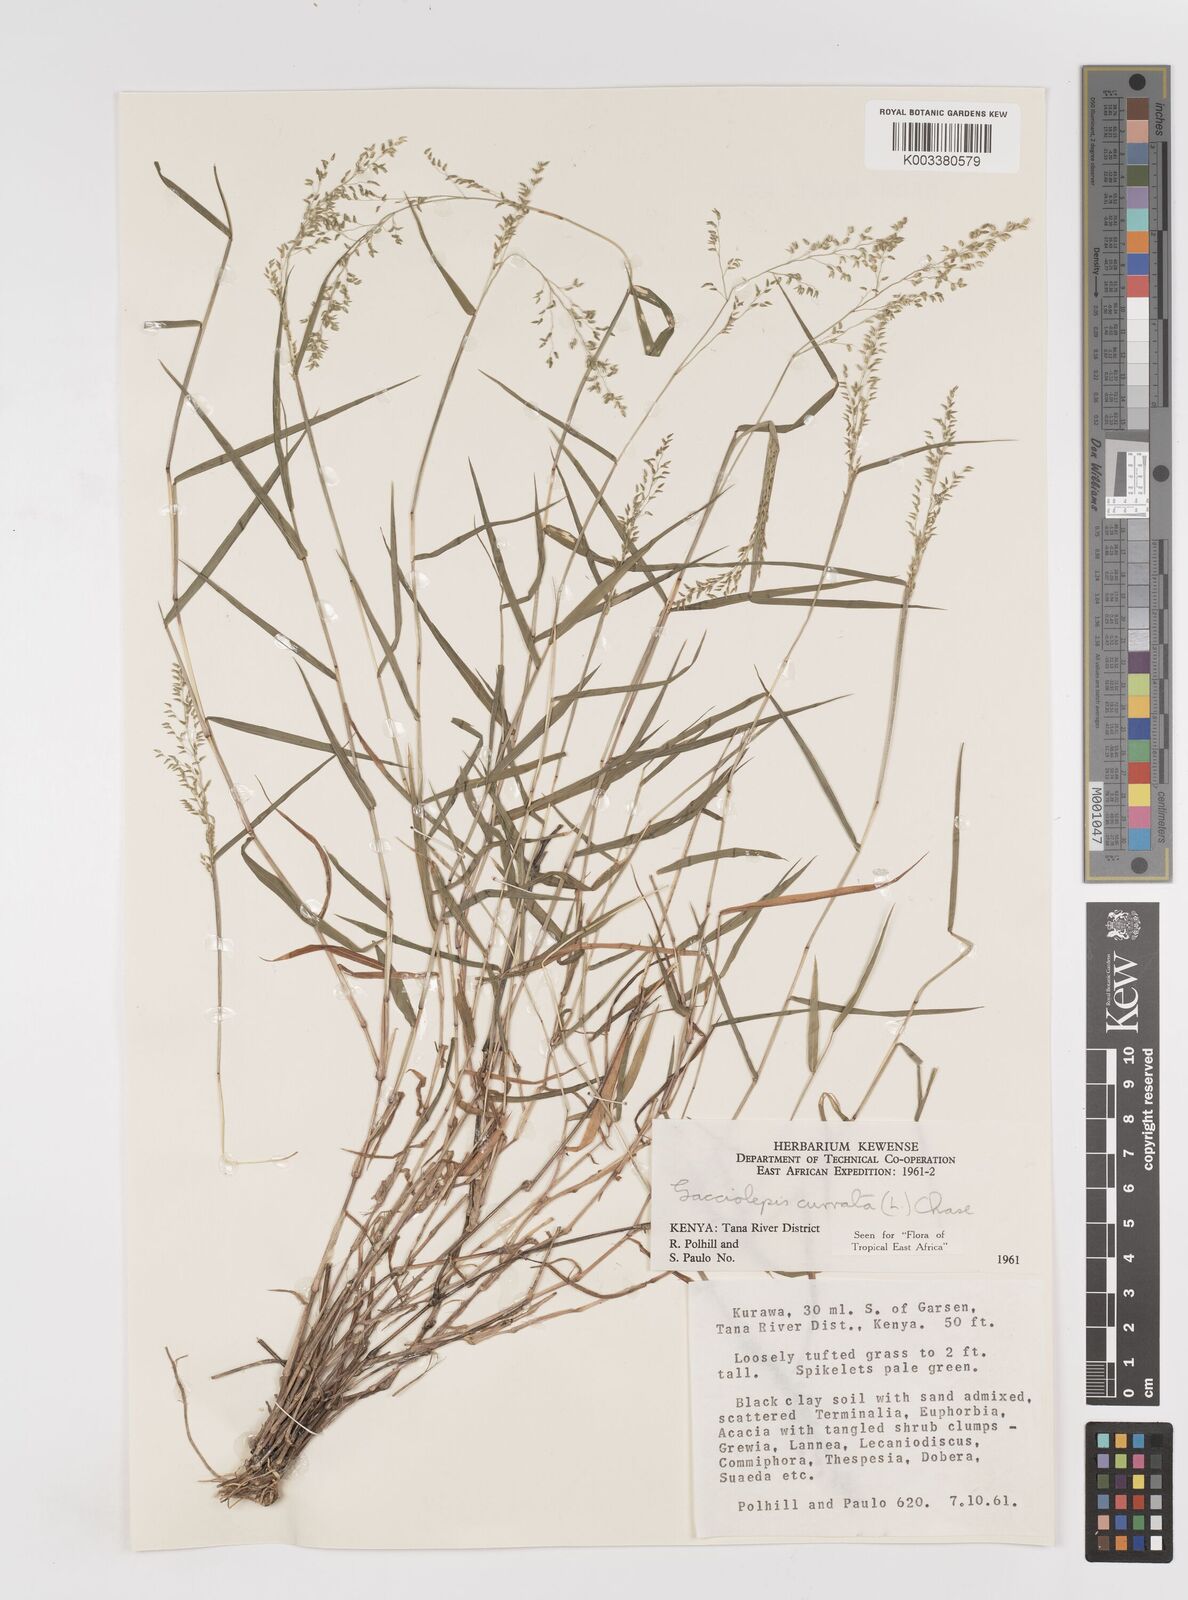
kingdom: Plantae
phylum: Tracheophyta
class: Liliopsida
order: Poales
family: Poaceae
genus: Sacciolepis
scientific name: Sacciolepis curvata
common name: Forest hood grass
